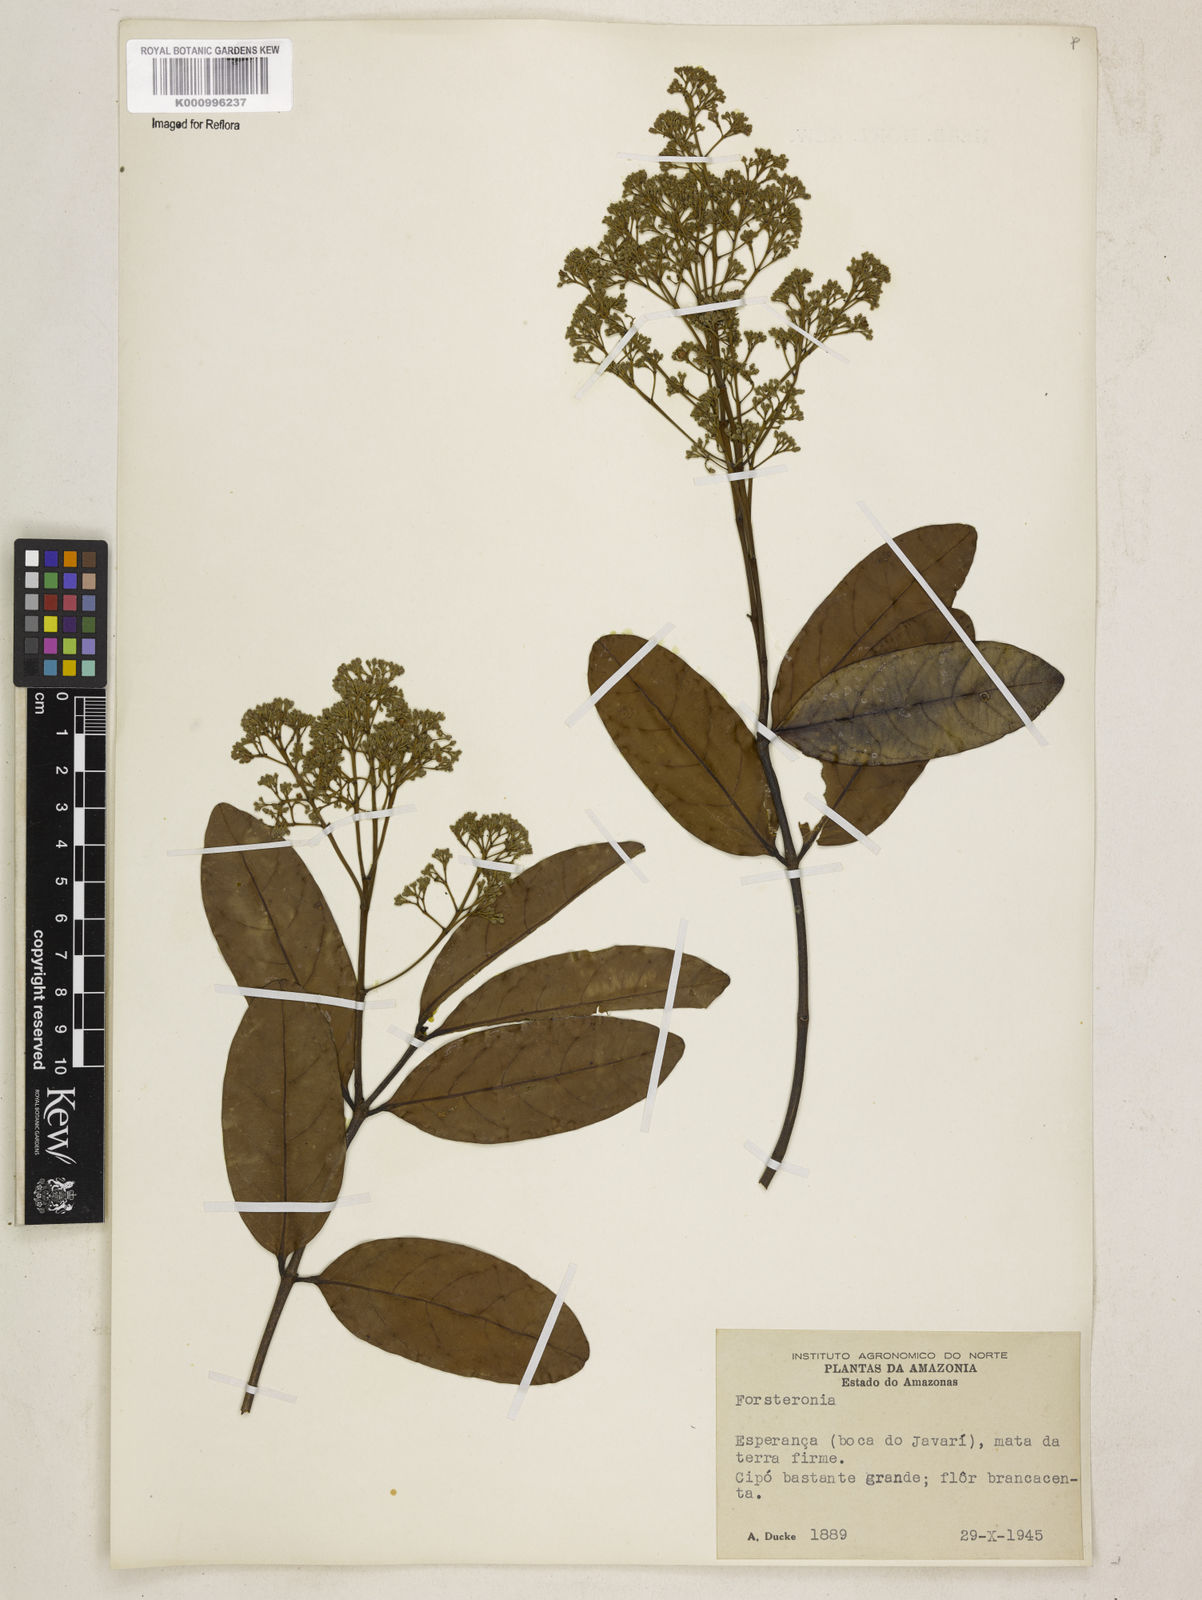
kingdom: Plantae
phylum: Tracheophyta
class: Magnoliopsida
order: Gentianales
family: Apocynaceae
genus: Forsteronia
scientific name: Forsteronia guyanensis
